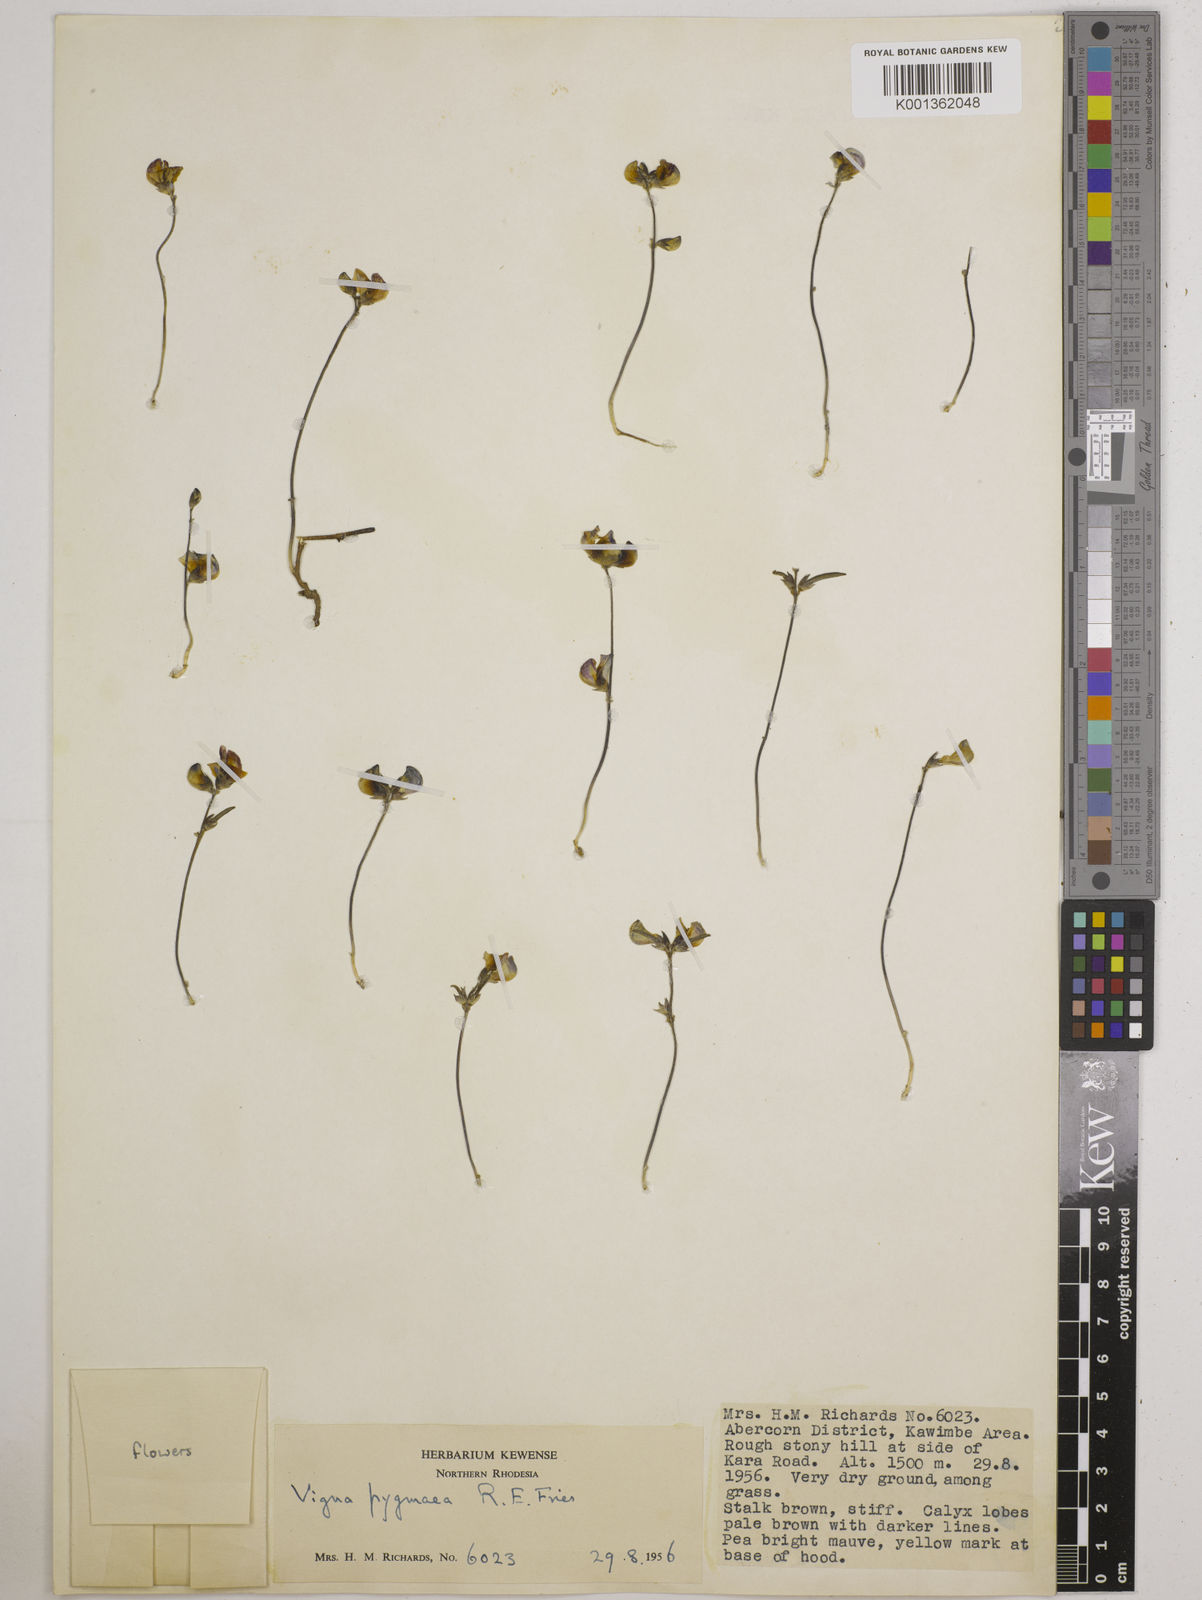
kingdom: Plantae
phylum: Tracheophyta
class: Magnoliopsida
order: Fabales
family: Fabaceae
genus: Vigna
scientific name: Vigna pygmaea
